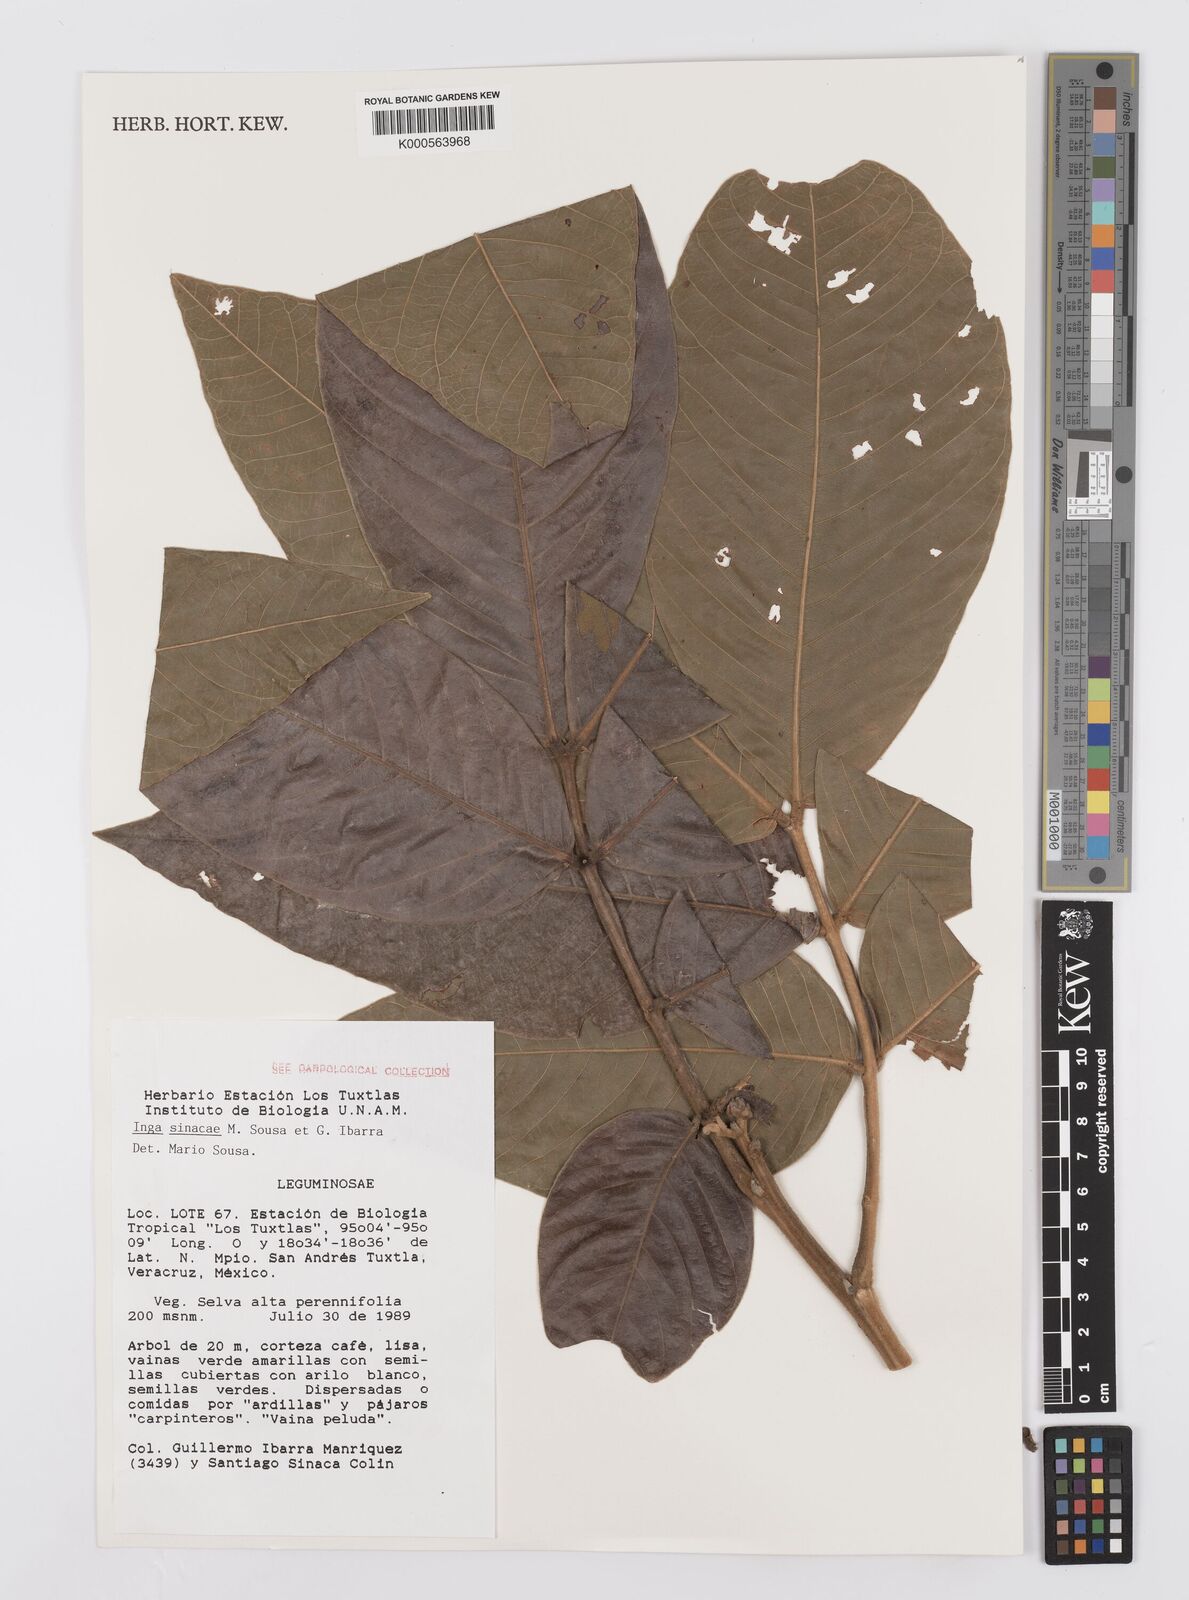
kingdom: Plantae
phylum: Tracheophyta
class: Magnoliopsida
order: Fabales
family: Fabaceae
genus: Inga
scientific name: Inga sinacae
